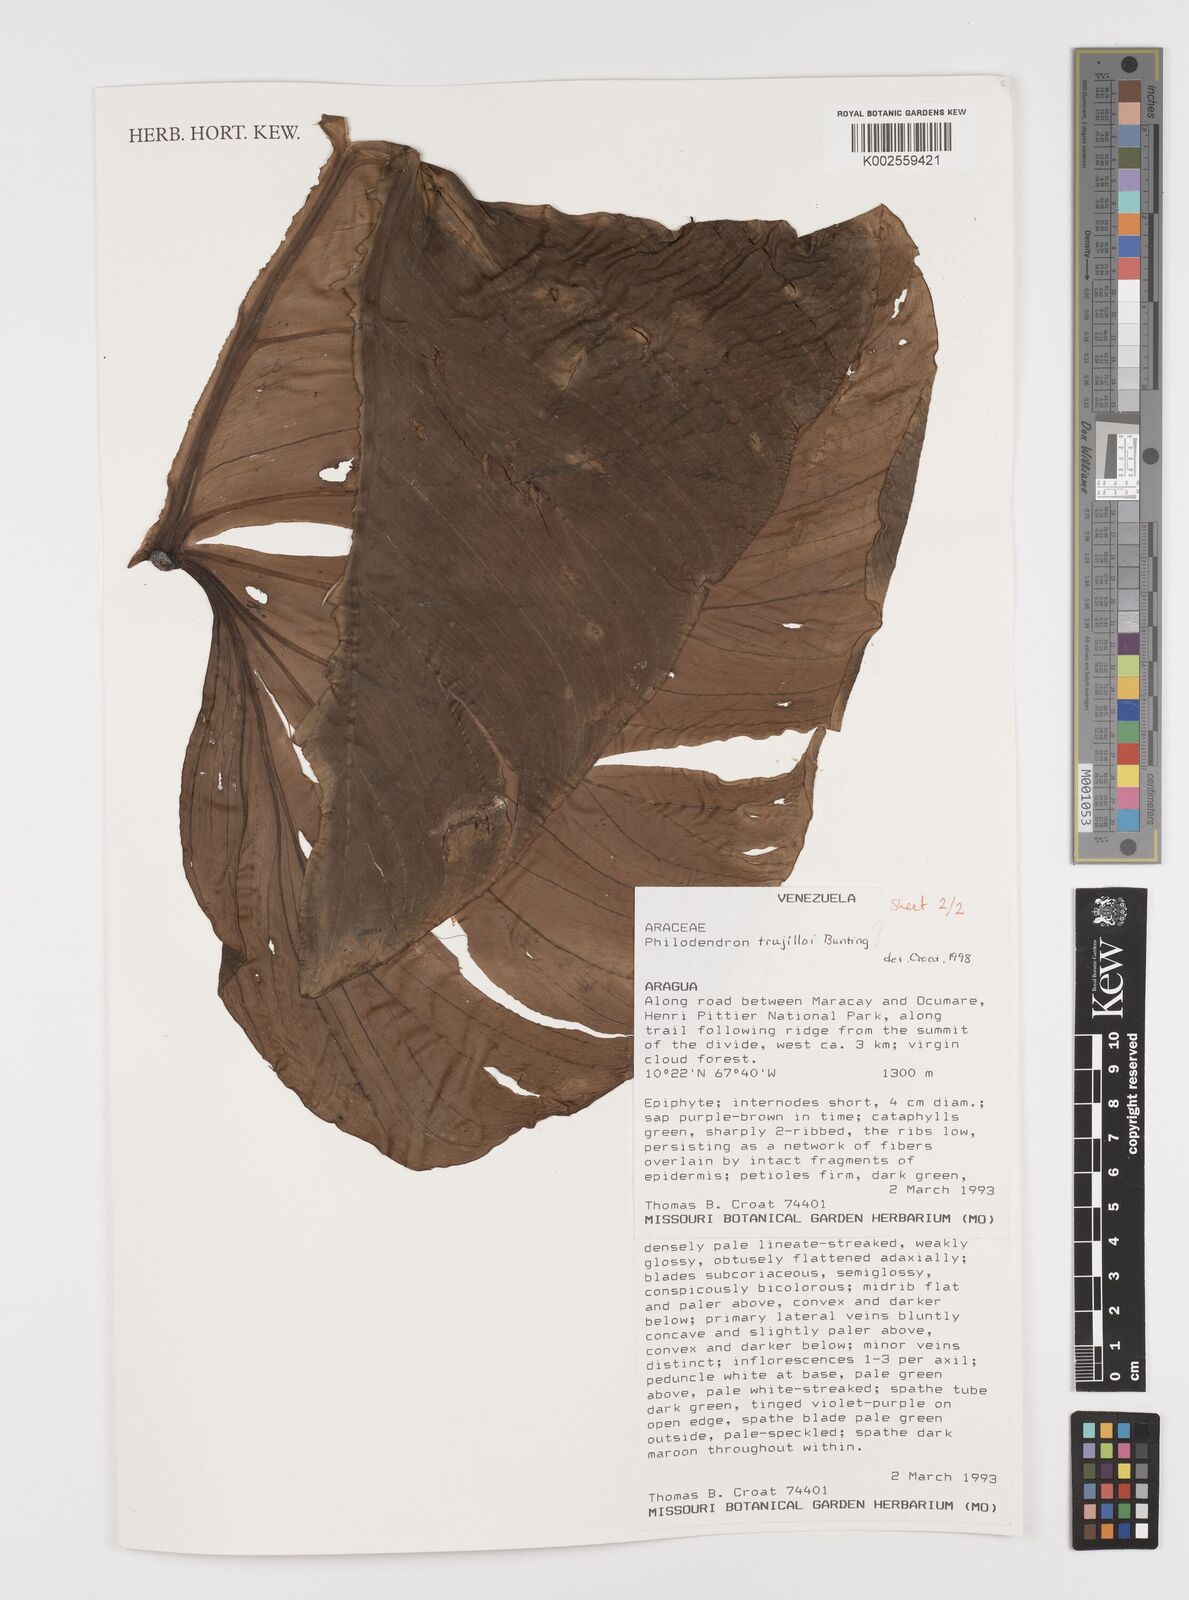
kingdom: Plantae
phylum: Tracheophyta
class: Liliopsida
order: Alismatales
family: Araceae
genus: Philodendron
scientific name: Philodendron trujilloi
